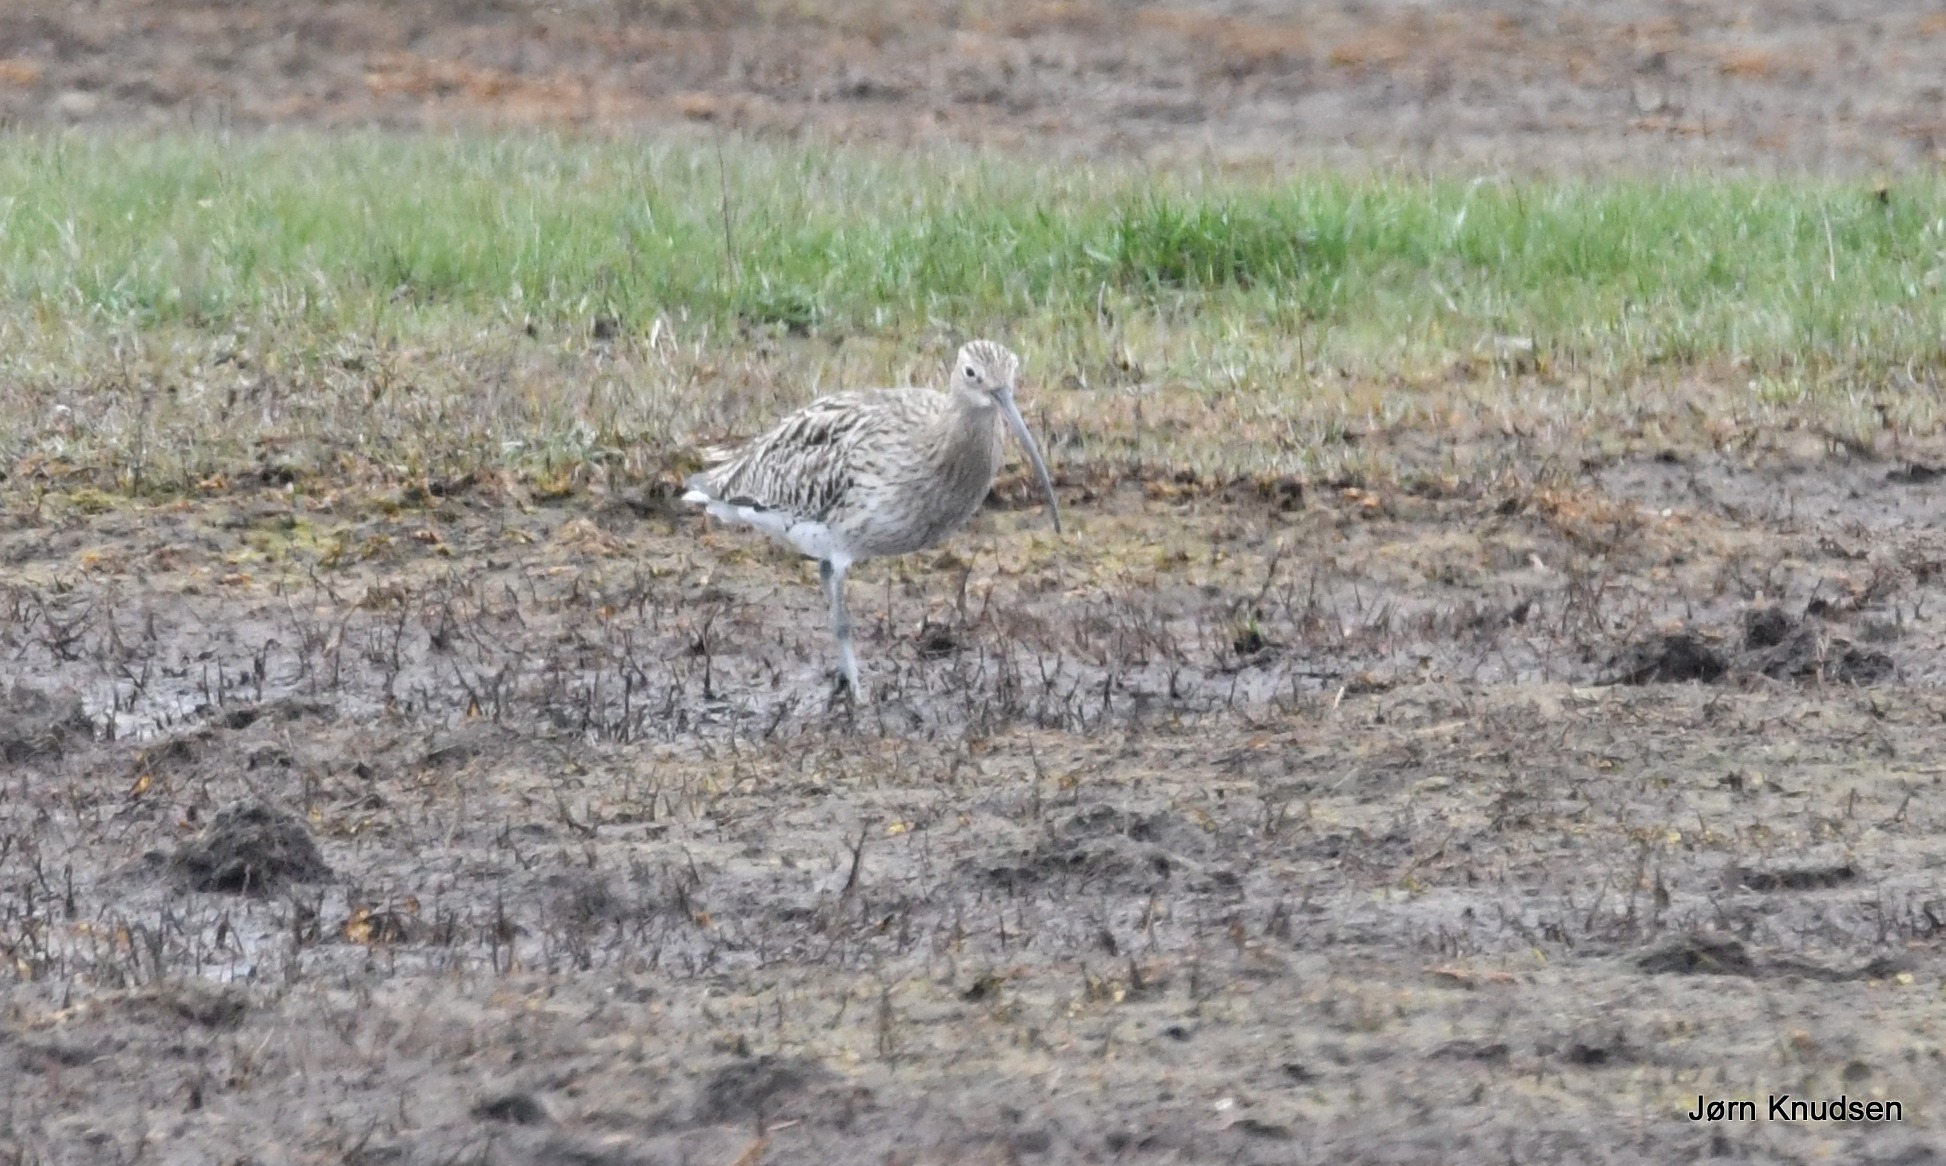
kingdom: Animalia
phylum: Chordata
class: Aves
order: Charadriiformes
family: Scolopacidae
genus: Numenius
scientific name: Numenius arquata
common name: Storspove
